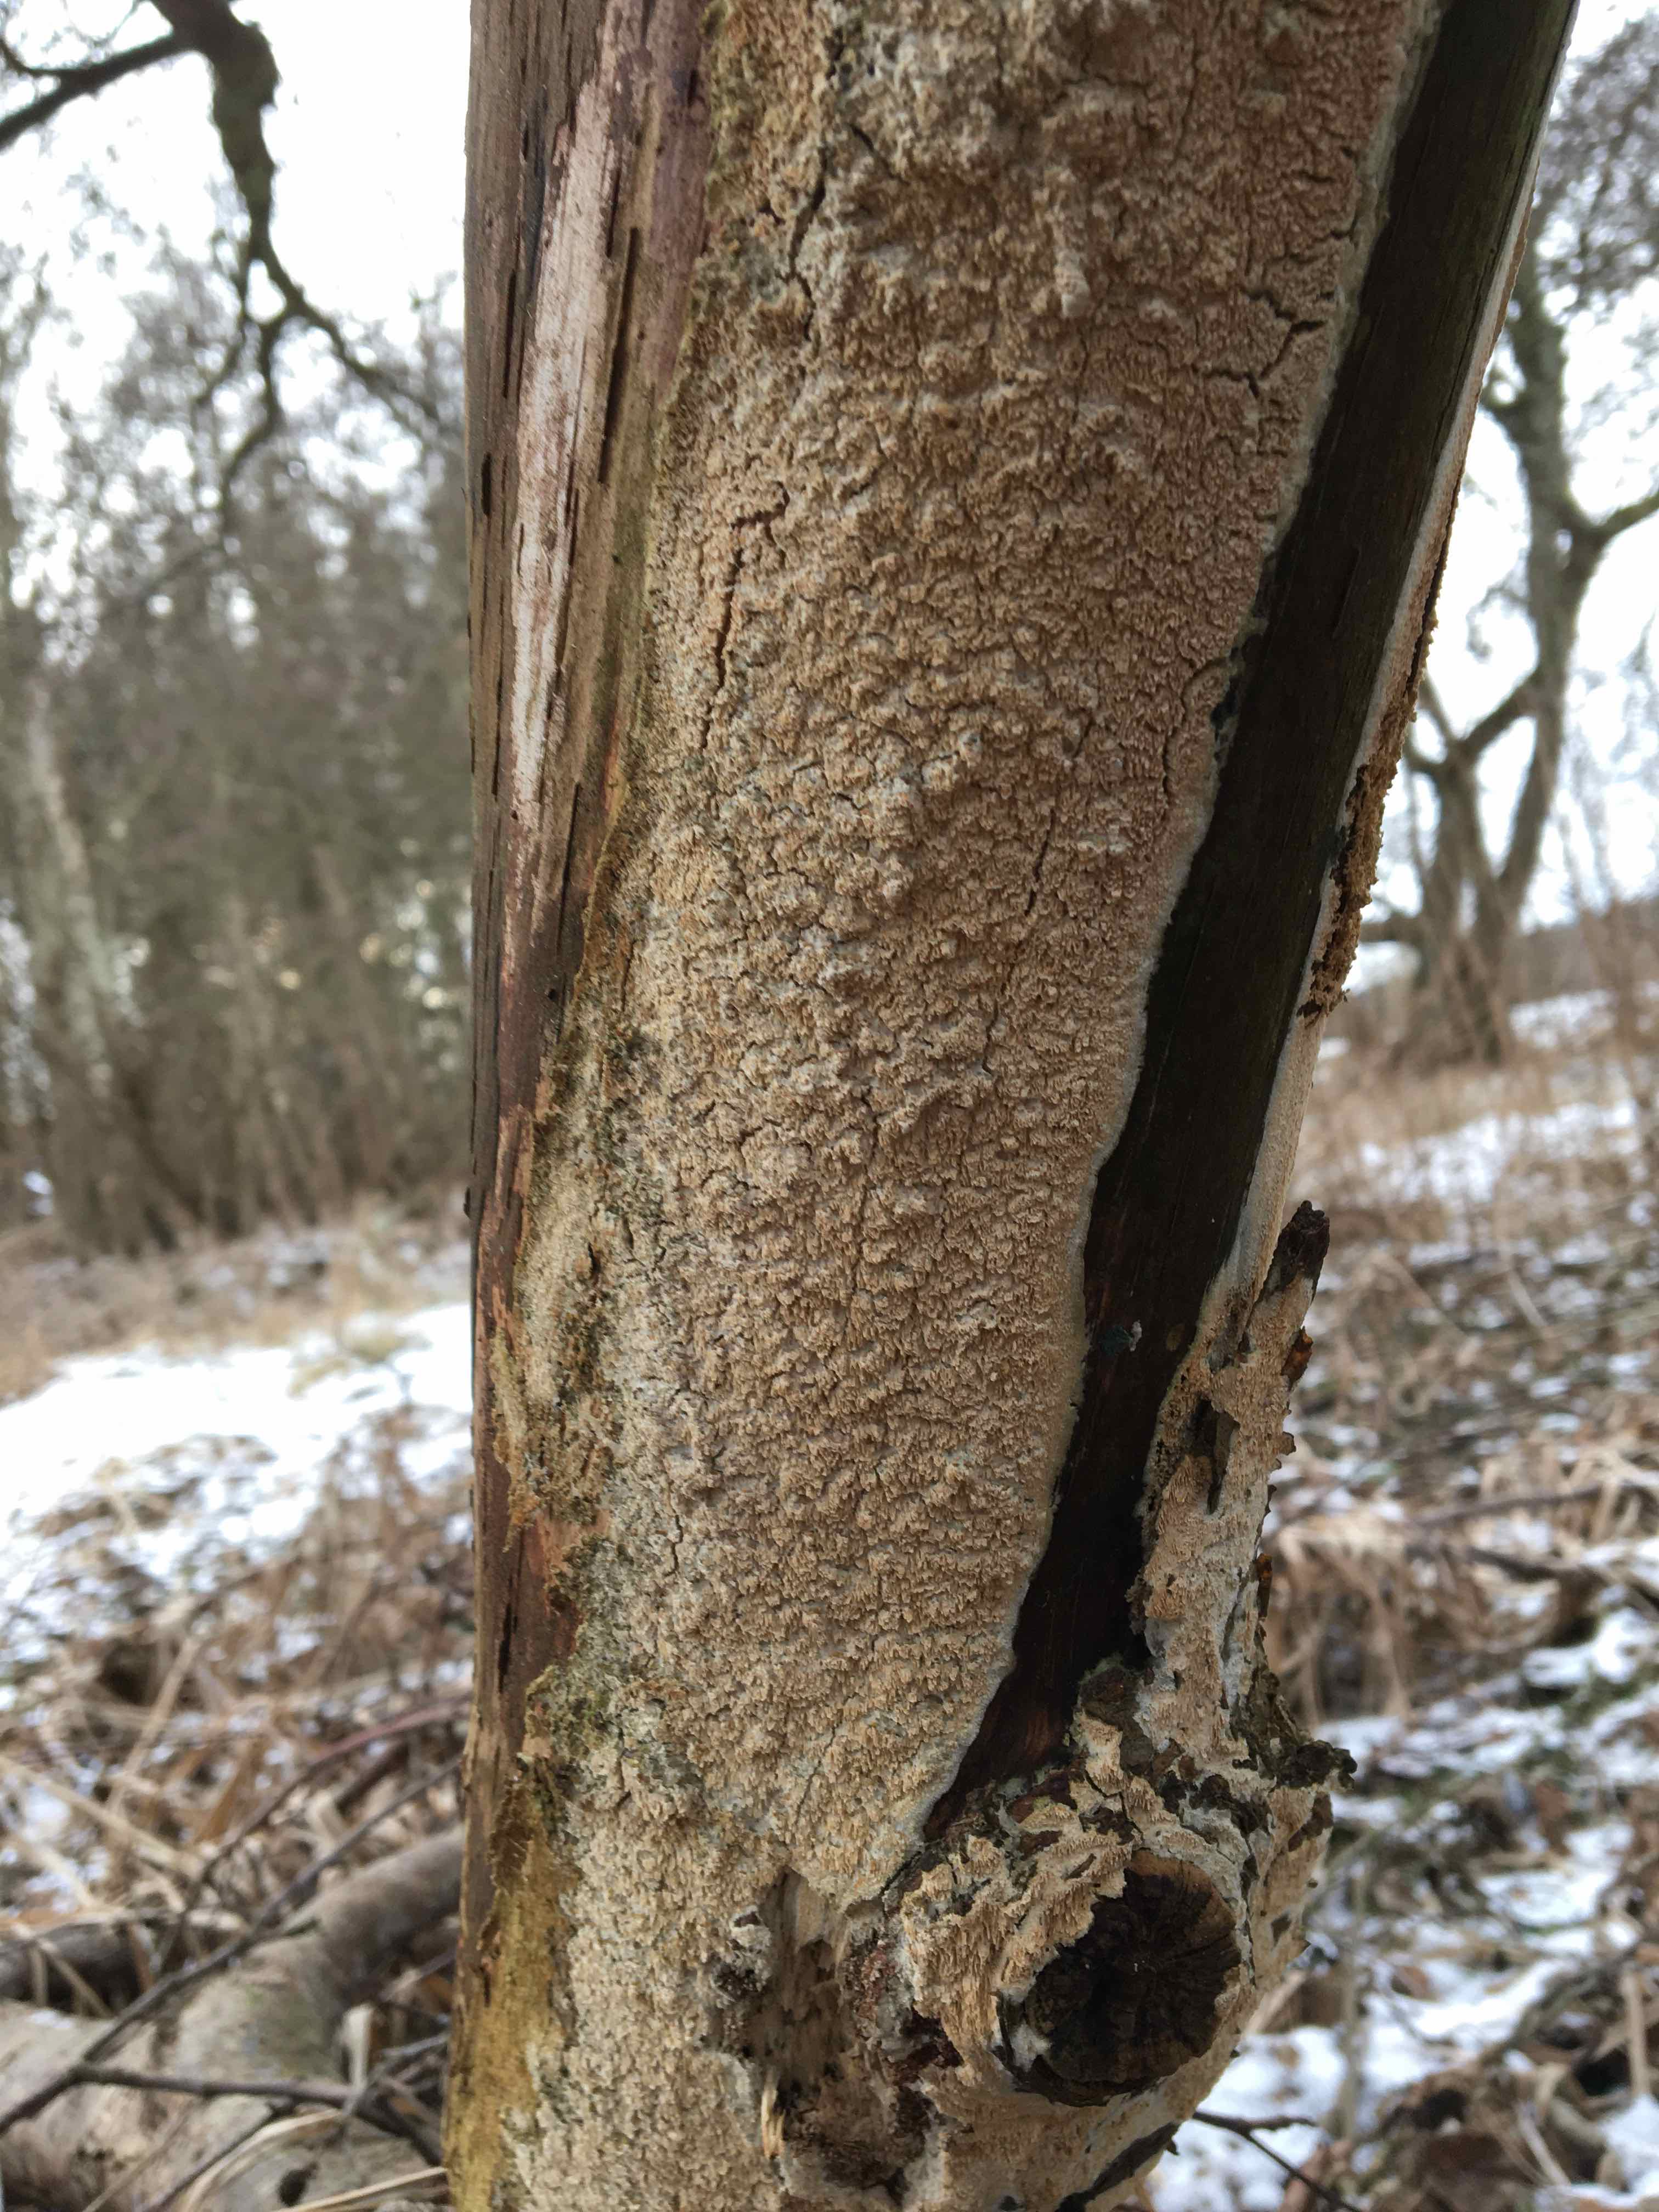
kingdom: Fungi
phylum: Basidiomycota
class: Agaricomycetes
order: Corticiales
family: Corticiaceae
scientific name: Corticiaceae
